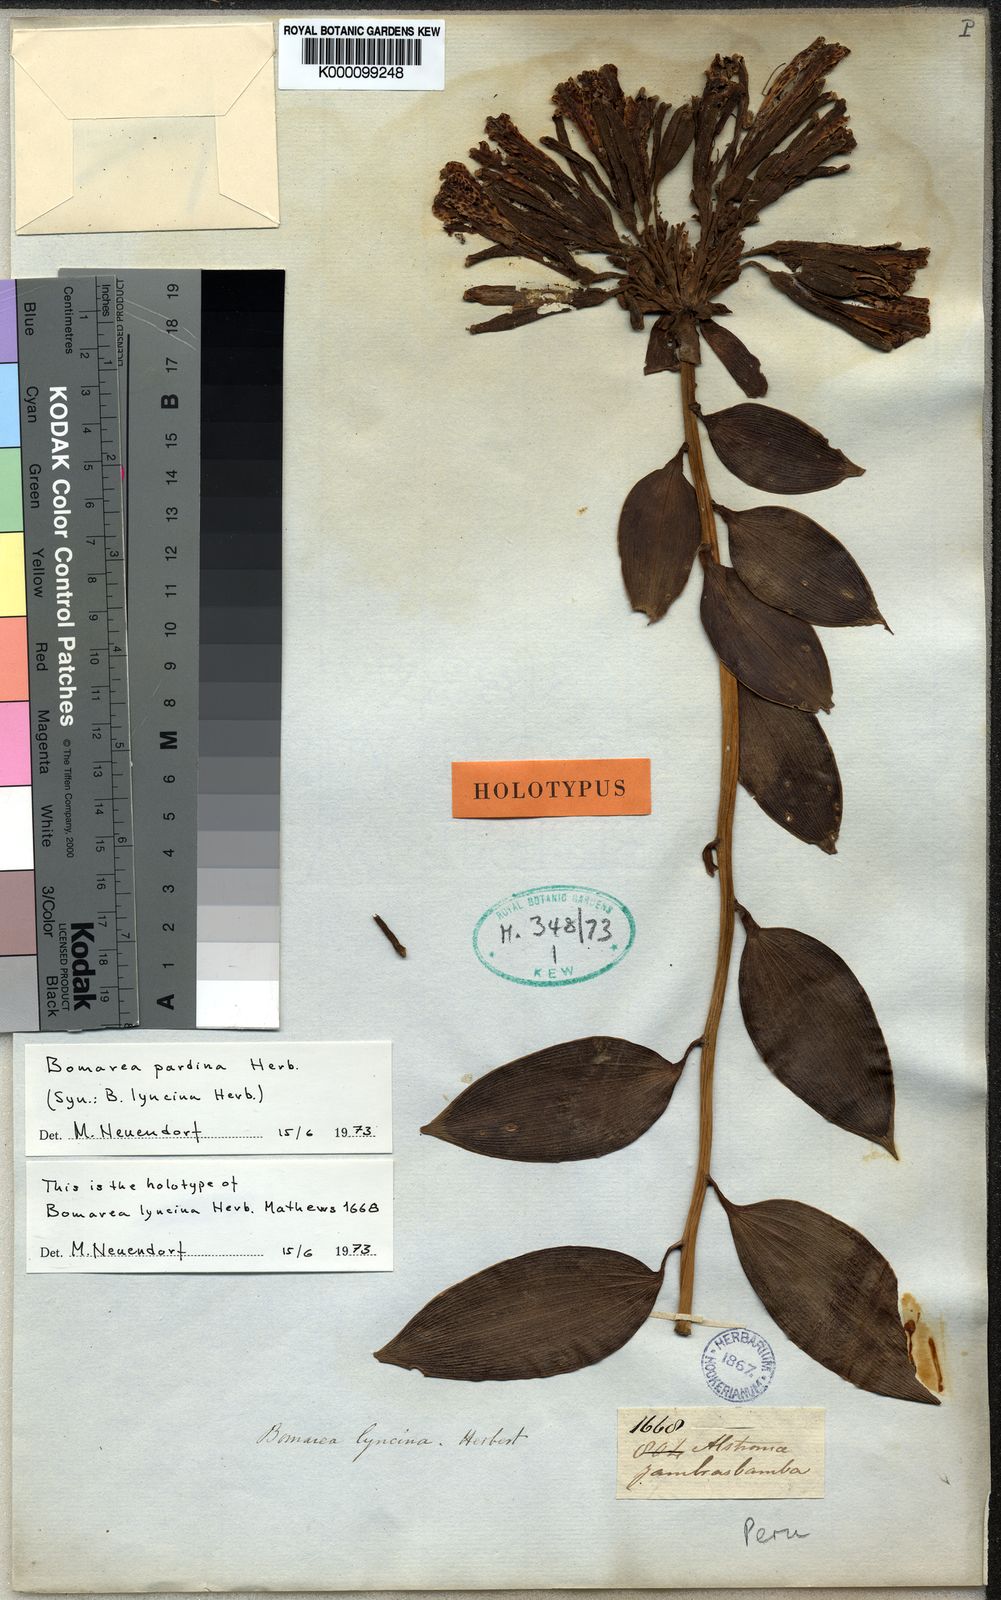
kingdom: Plantae
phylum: Tracheophyta
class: Liliopsida
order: Liliales
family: Alstroemeriaceae
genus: Bomarea
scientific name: Bomarea pardina
